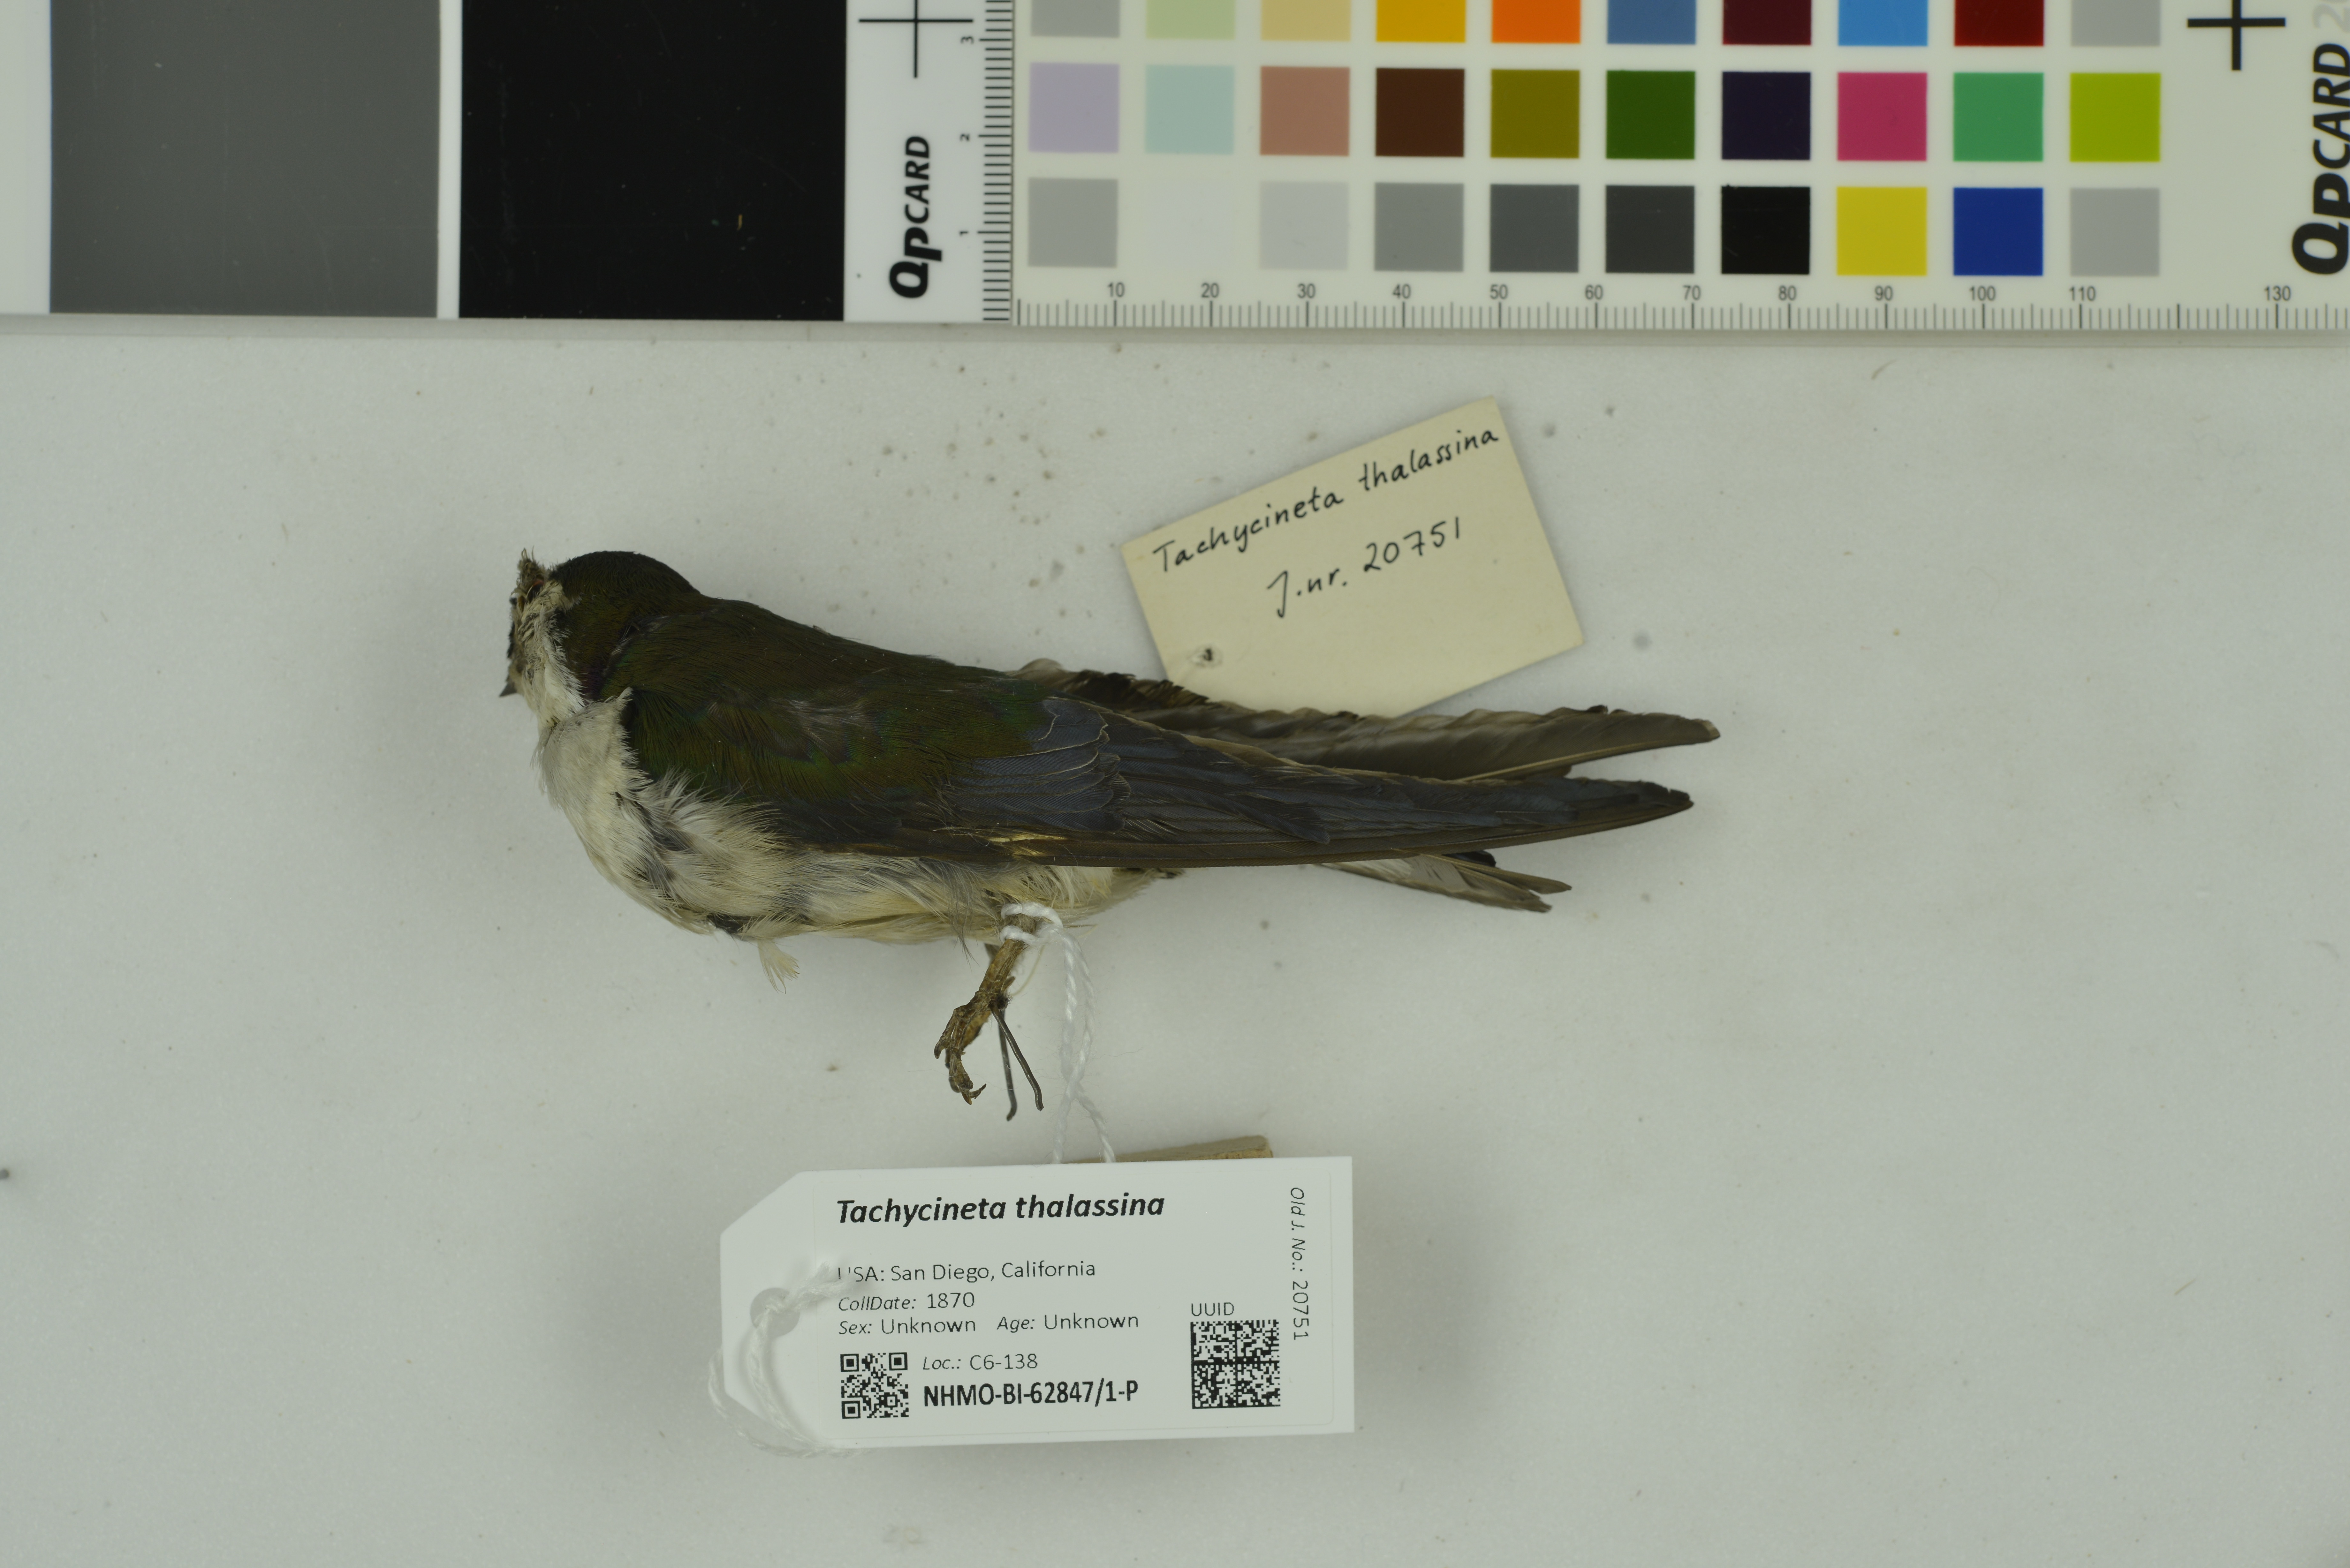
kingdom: Animalia
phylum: Chordata
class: Aves
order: Passeriformes
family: Hirundinidae
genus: Tachycineta
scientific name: Tachycineta thalassina
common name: Violet-green swallow
